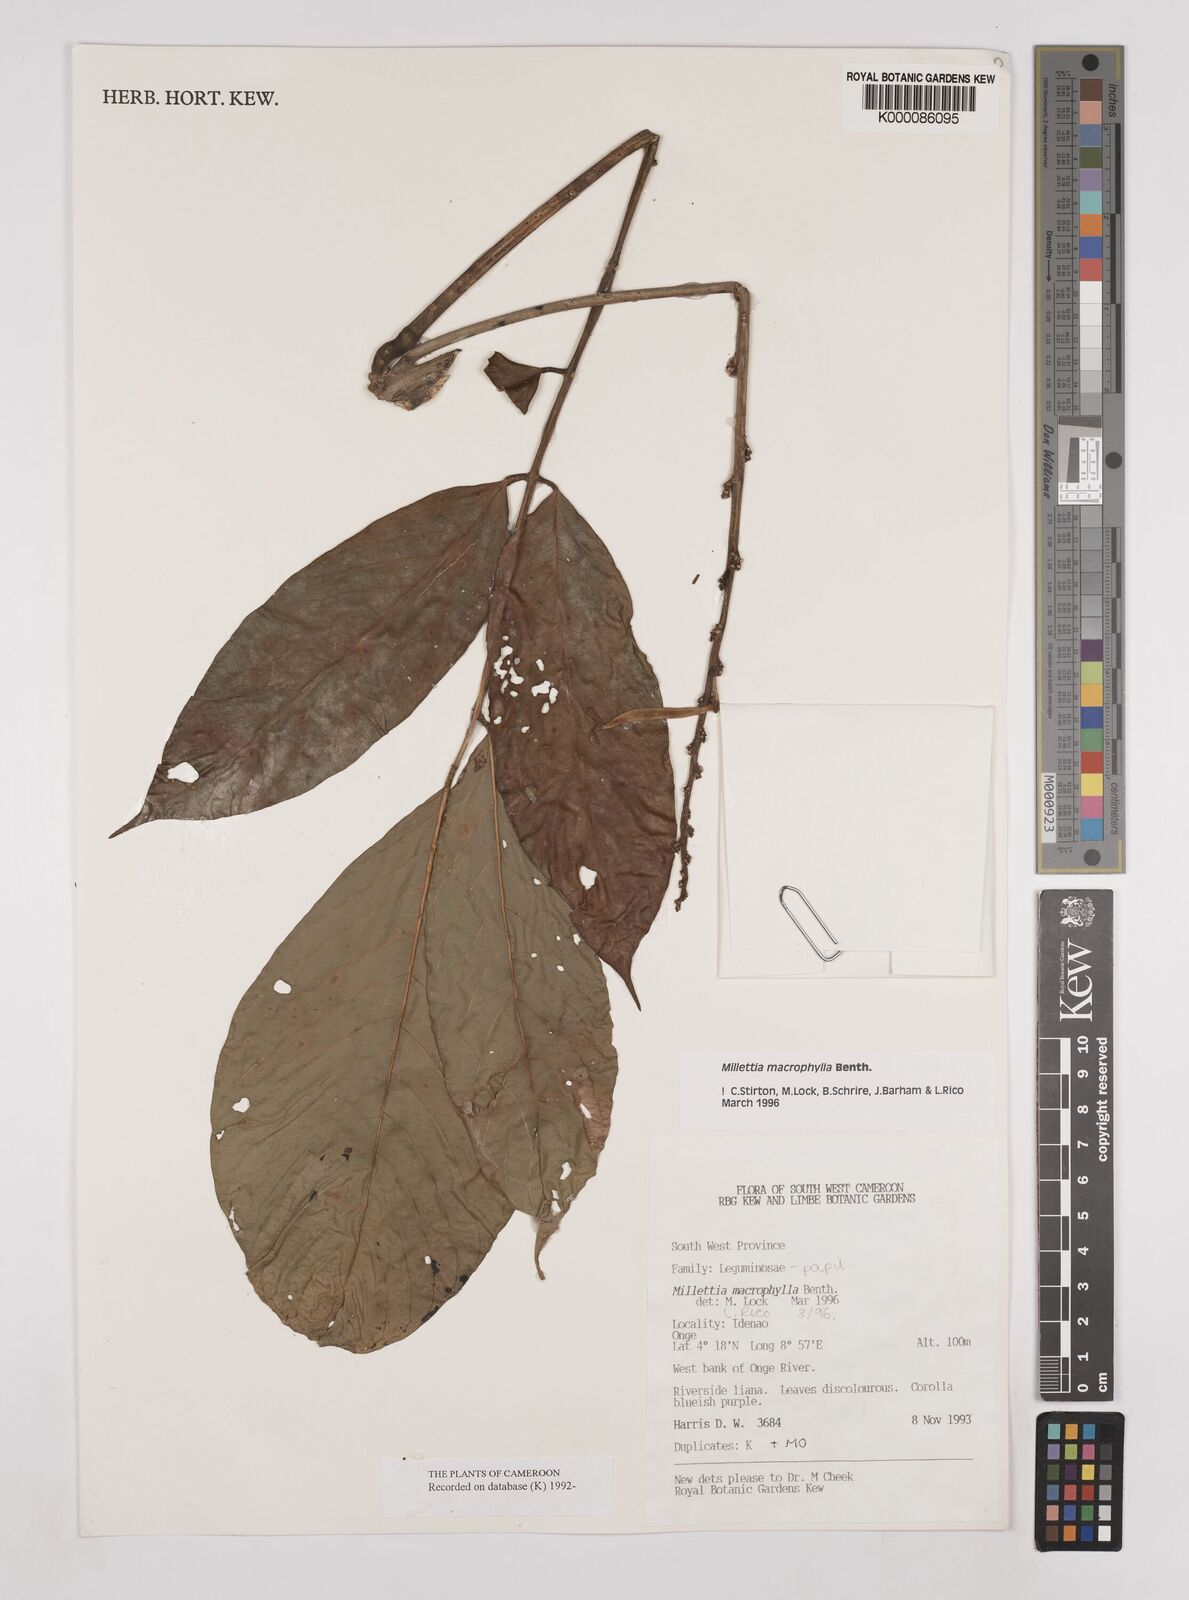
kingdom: Plantae
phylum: Tracheophyta
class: Magnoliopsida
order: Fabales
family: Fabaceae
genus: Millettia
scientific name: Millettia macrophylla
